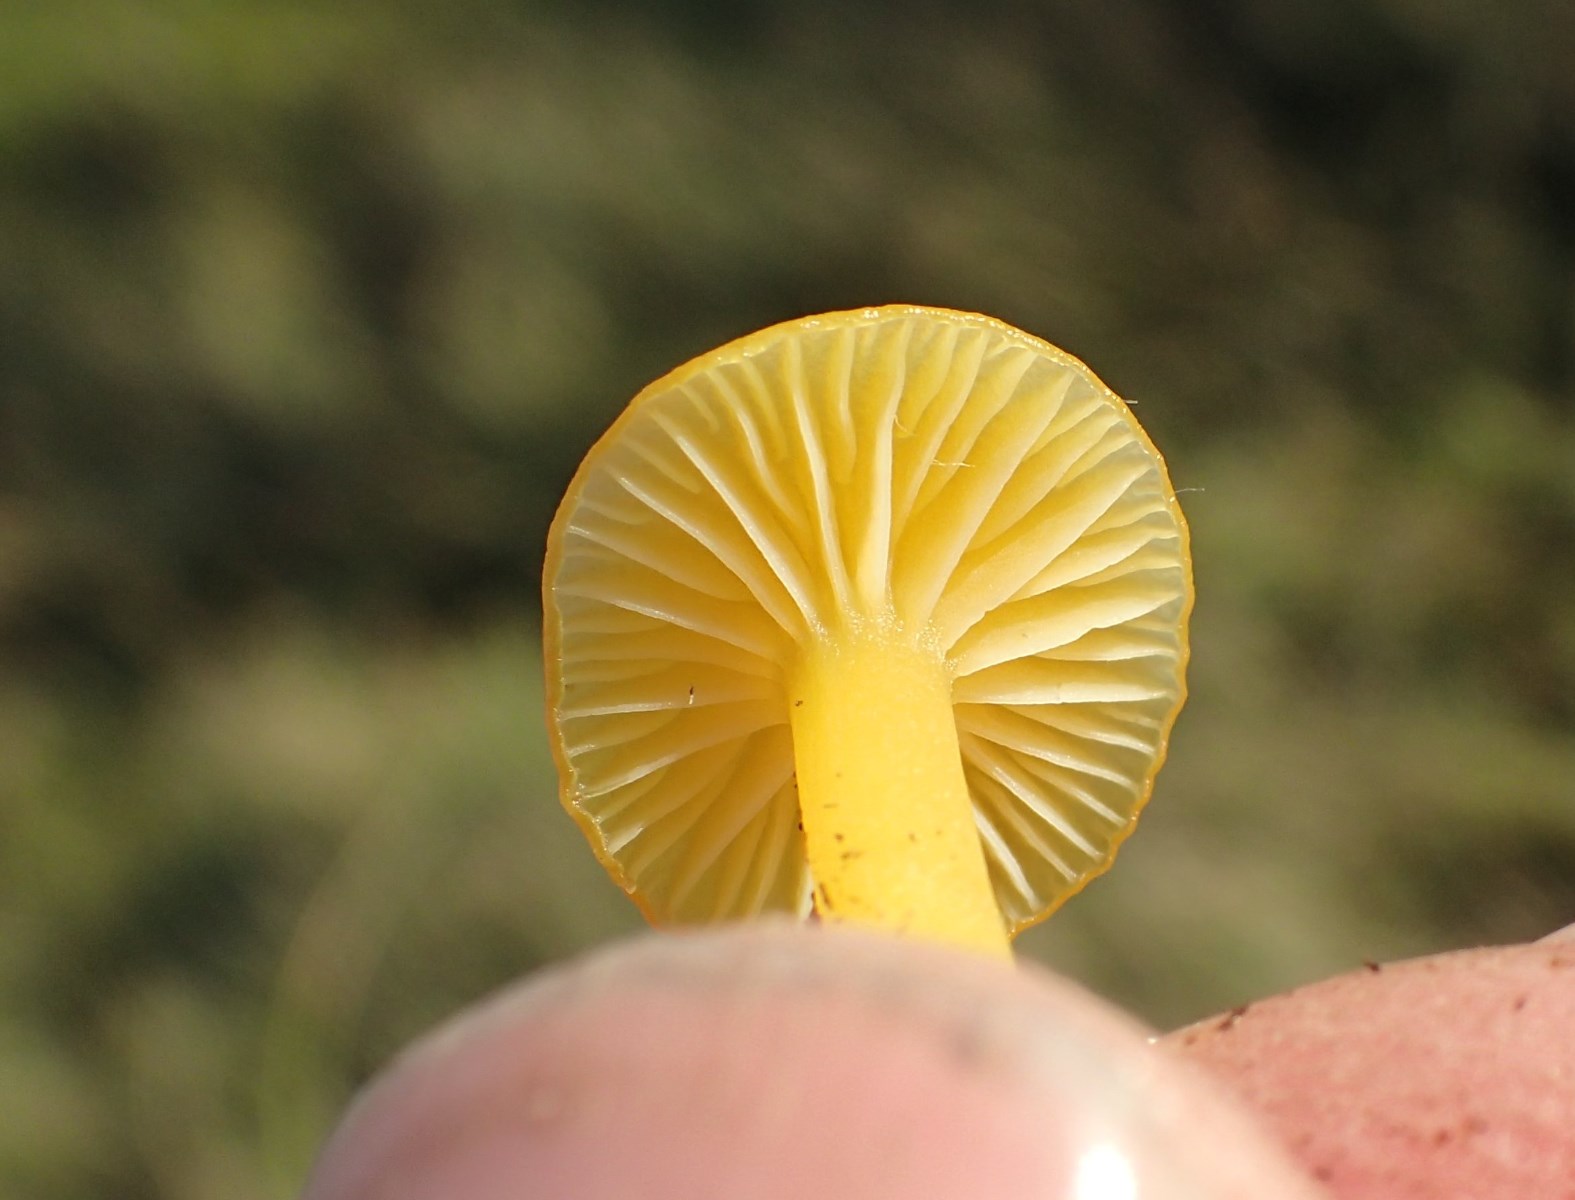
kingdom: Fungi
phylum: Basidiomycota
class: Agaricomycetes
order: Agaricales
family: Hygrophoraceae
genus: Hygrocybe
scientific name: Hygrocybe ceracea
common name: voksgul vokshat
